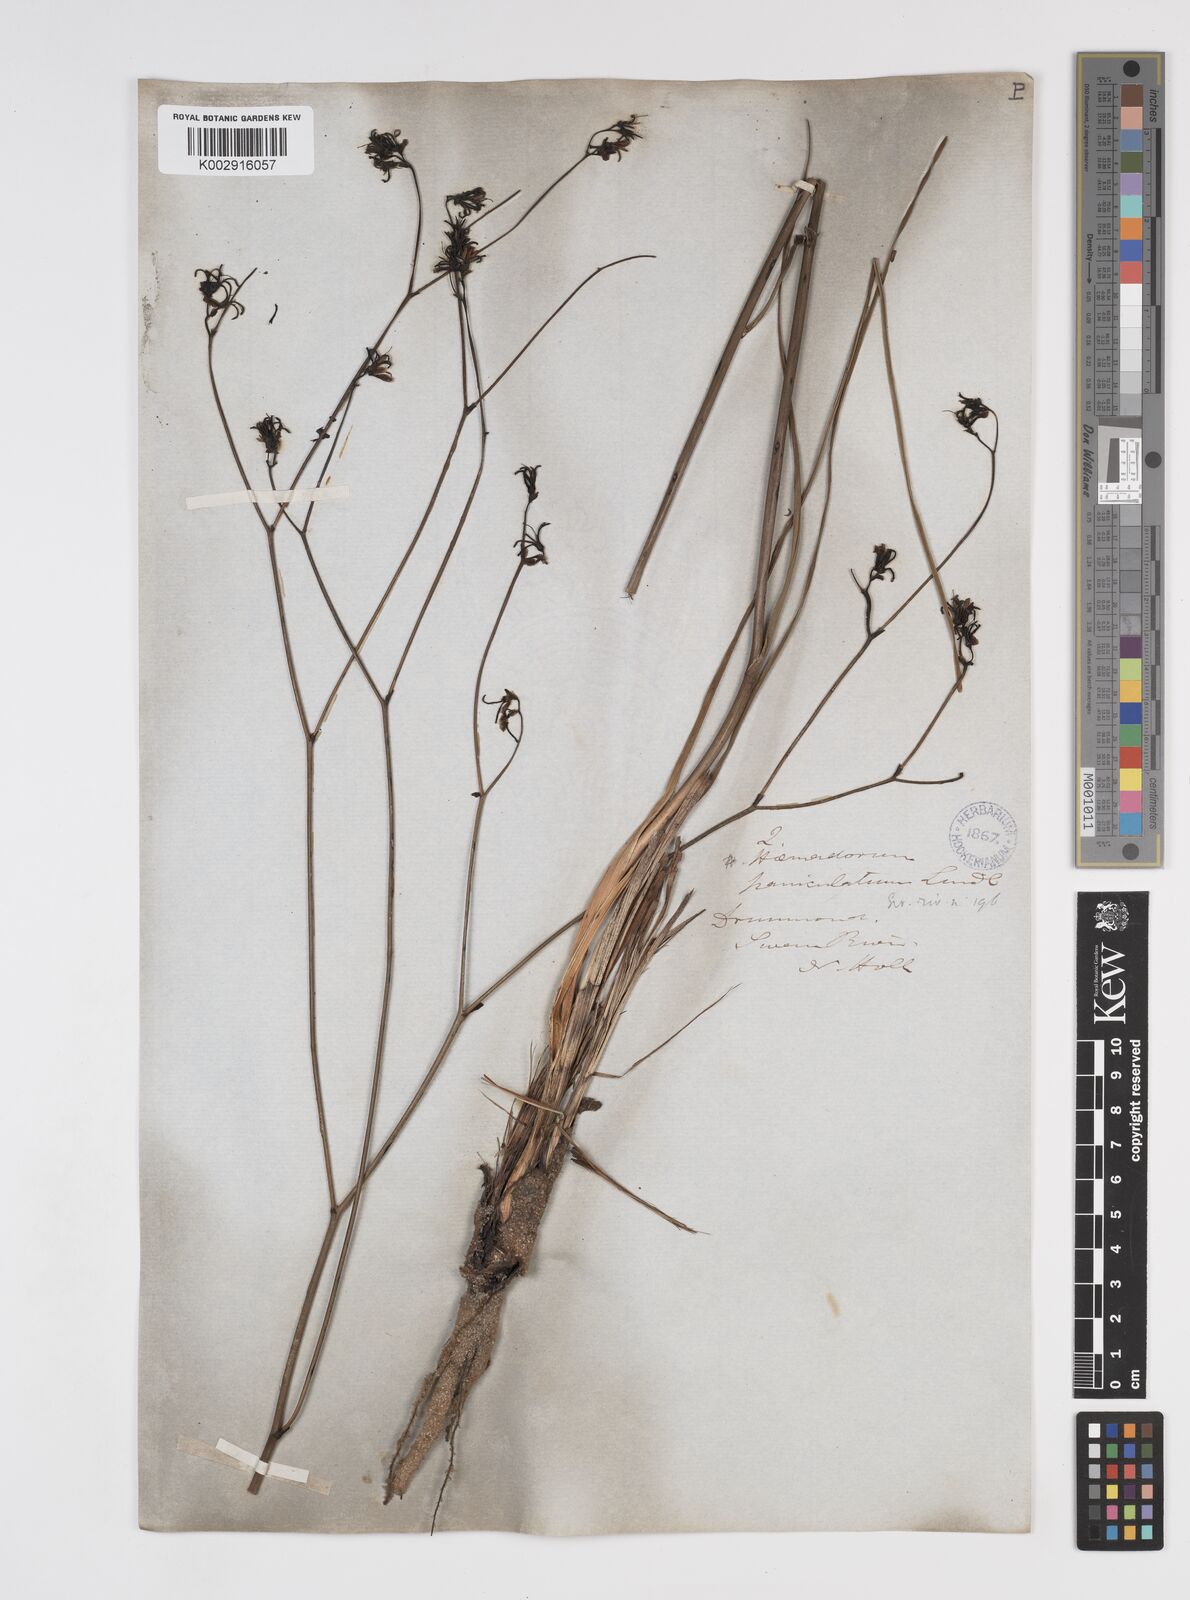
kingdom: Plantae
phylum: Tracheophyta
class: Liliopsida
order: Commelinales
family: Haemodoraceae
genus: Haemodorum
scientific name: Haemodorum paniculatum
